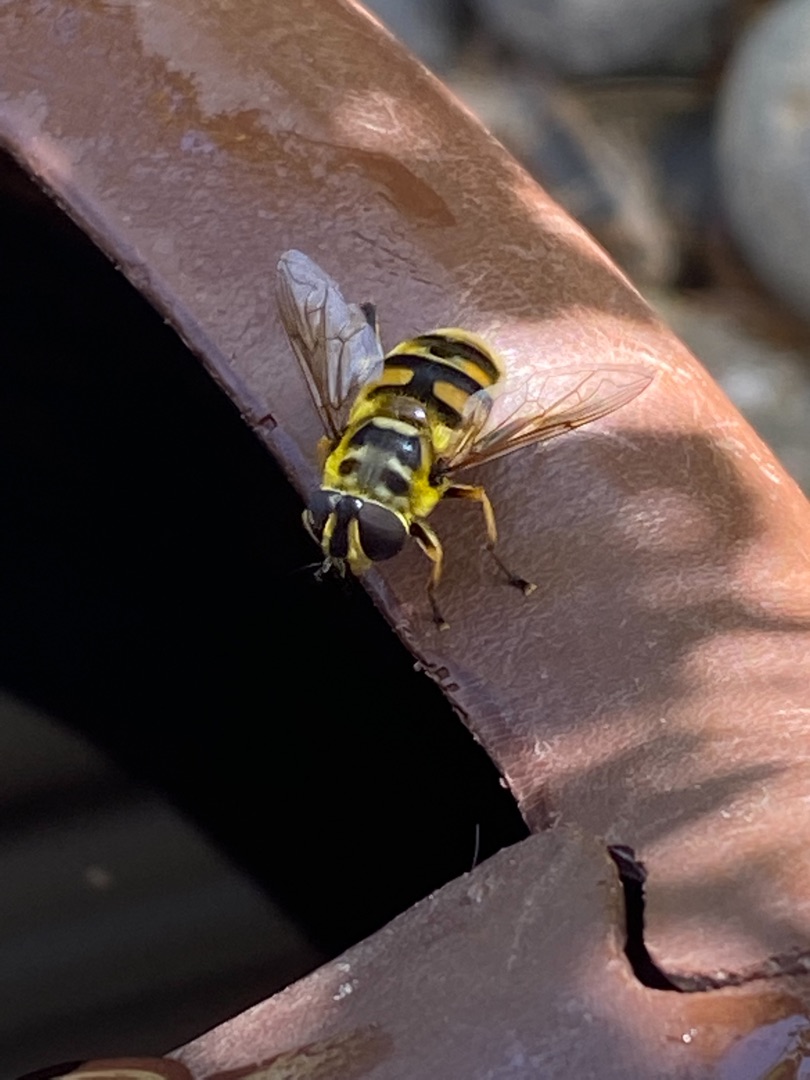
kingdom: Animalia
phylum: Arthropoda
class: Insecta
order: Diptera
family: Syrphidae
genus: Myathropa
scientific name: Myathropa florea
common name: Dødningehoved-svirreflue
